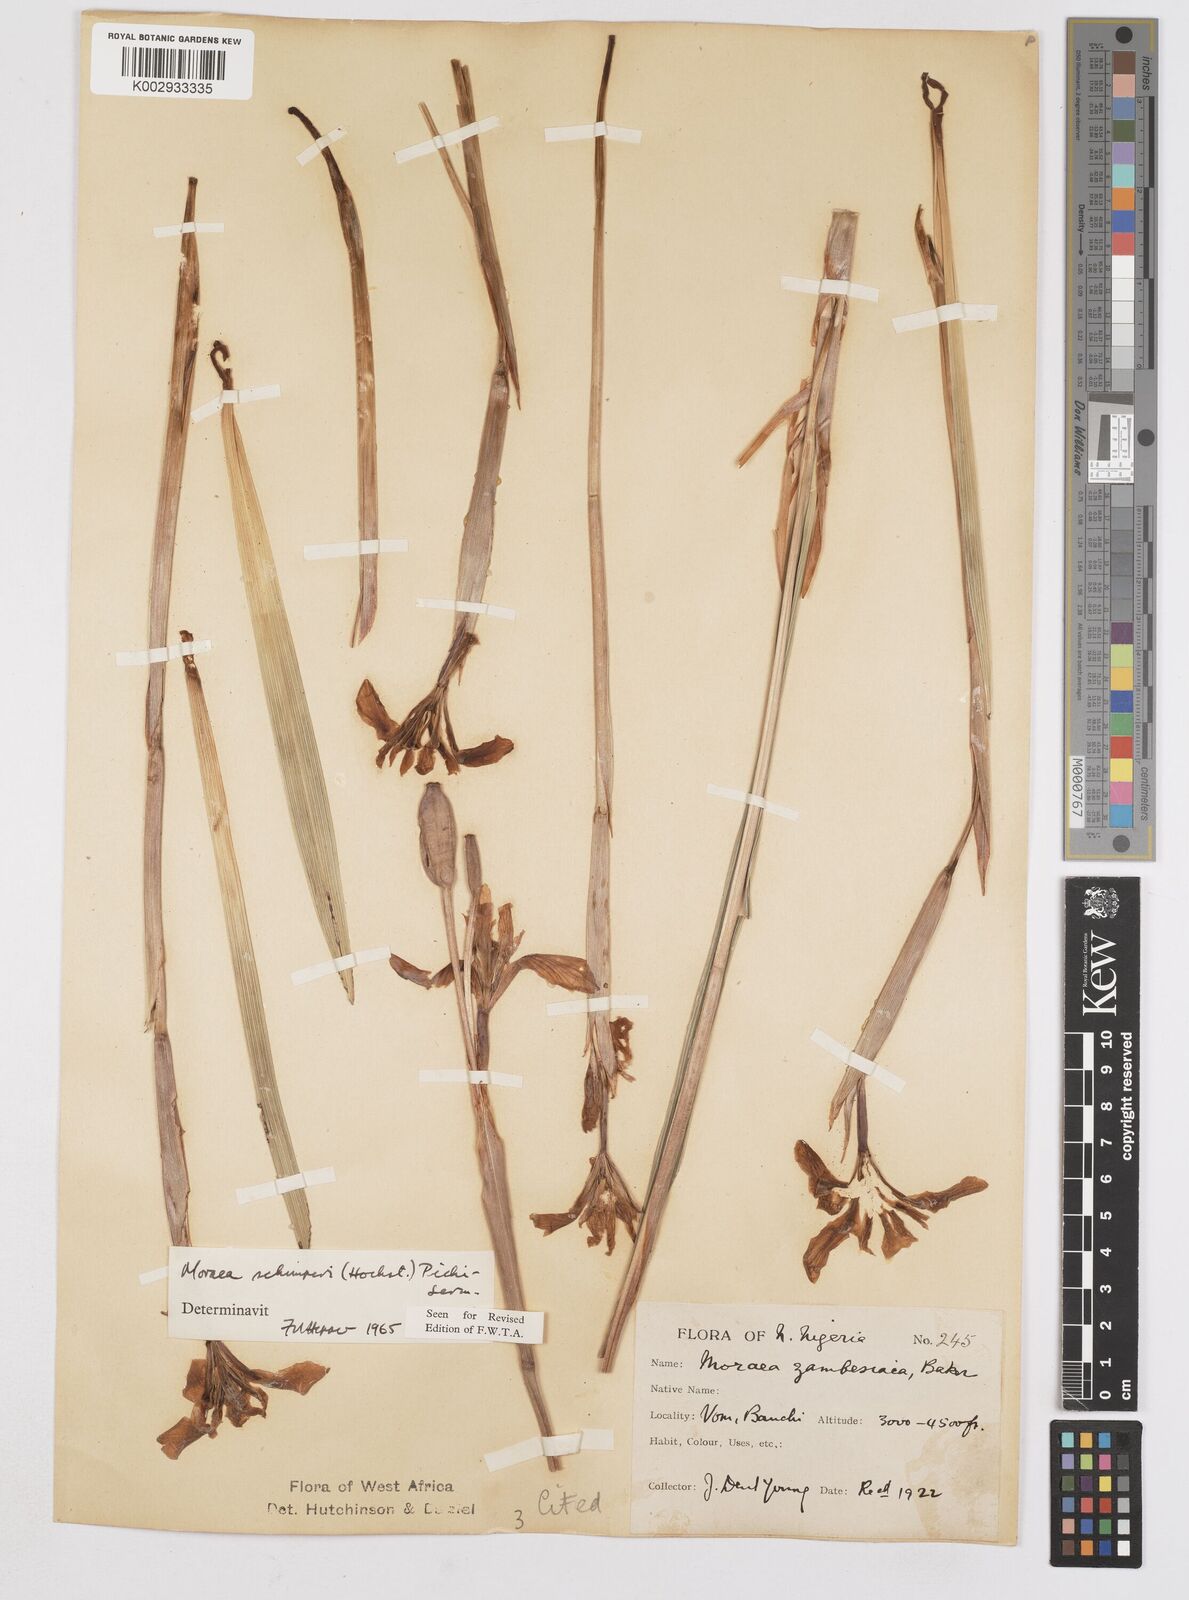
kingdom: Plantae
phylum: Tracheophyta
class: Liliopsida
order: Asparagales
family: Iridaceae
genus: Moraea
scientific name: Moraea schimperi
